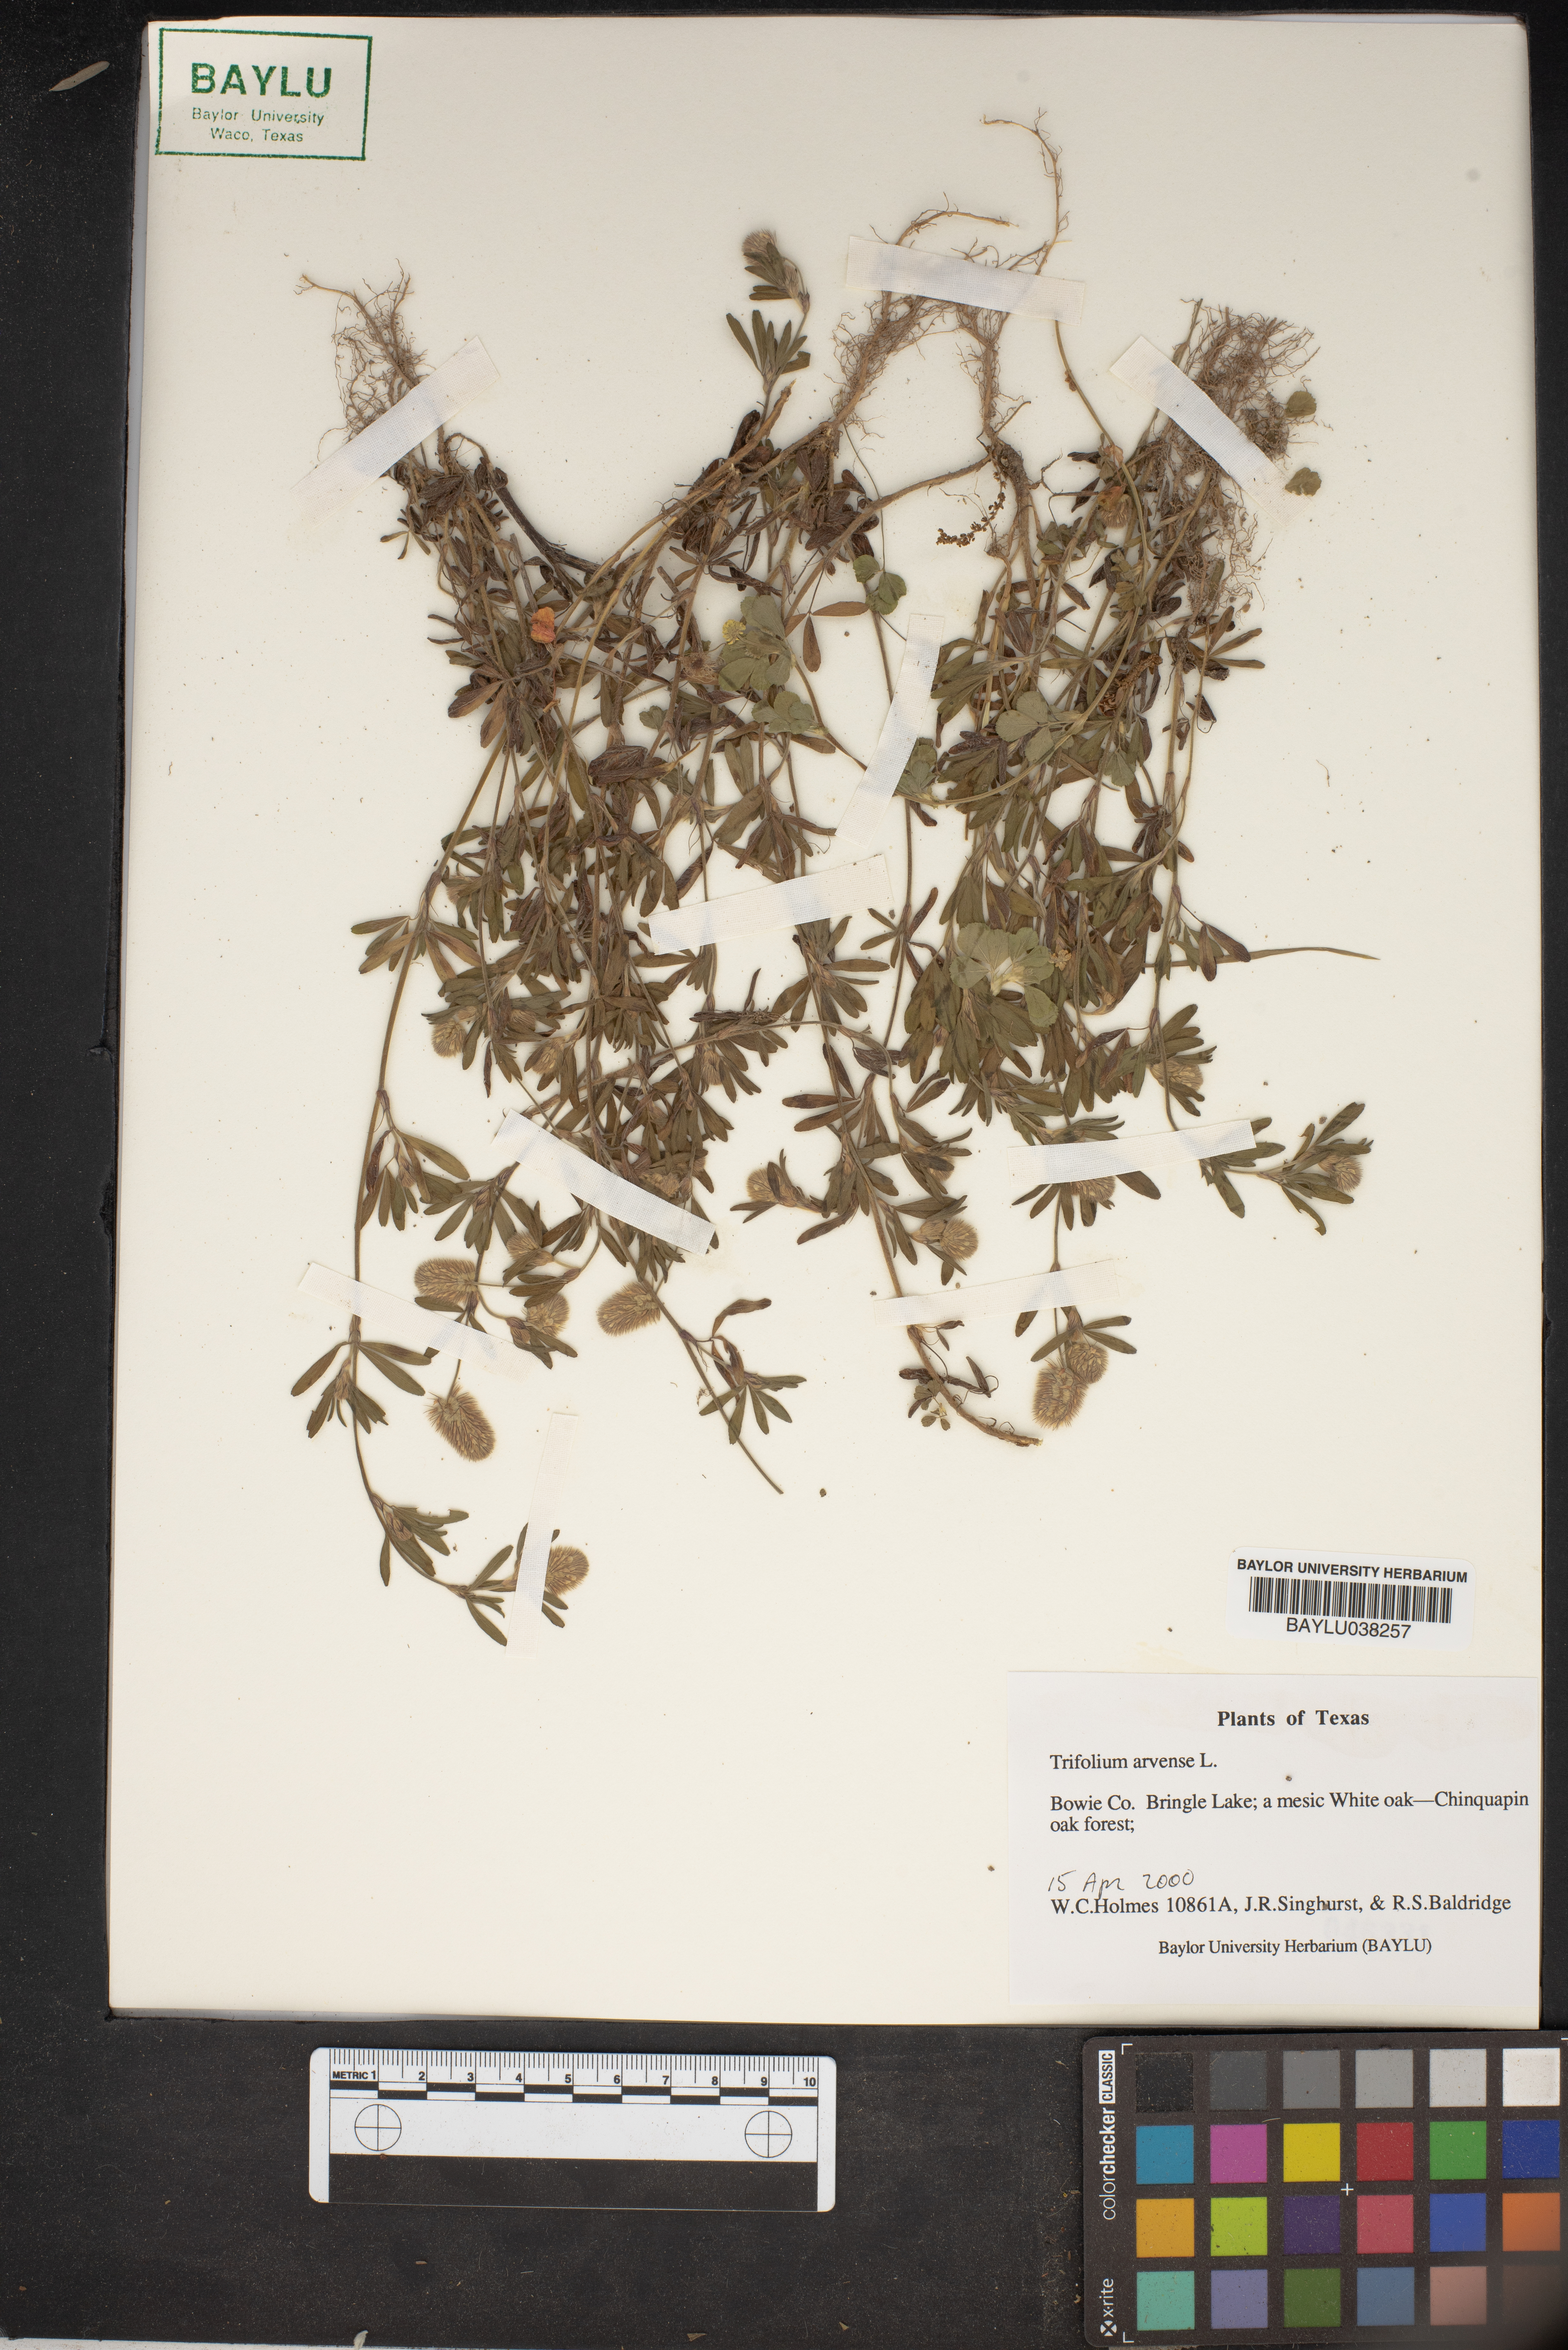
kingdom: Plantae
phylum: Tracheophyta
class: Magnoliopsida
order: Fabales
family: Fabaceae
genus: Trifolium
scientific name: Trifolium arvense
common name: Hare's-foot clover
